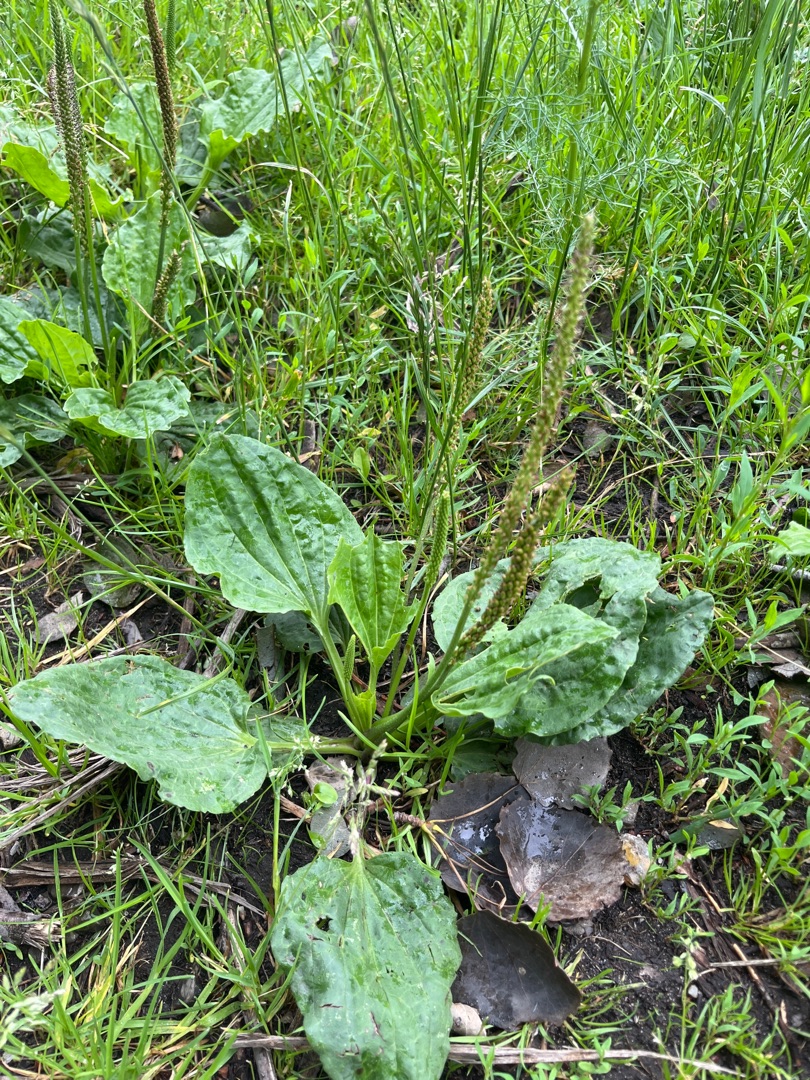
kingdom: Plantae
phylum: Tracheophyta
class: Magnoliopsida
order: Lamiales
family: Plantaginaceae
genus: Plantago
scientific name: Plantago major
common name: Glat vejbred
